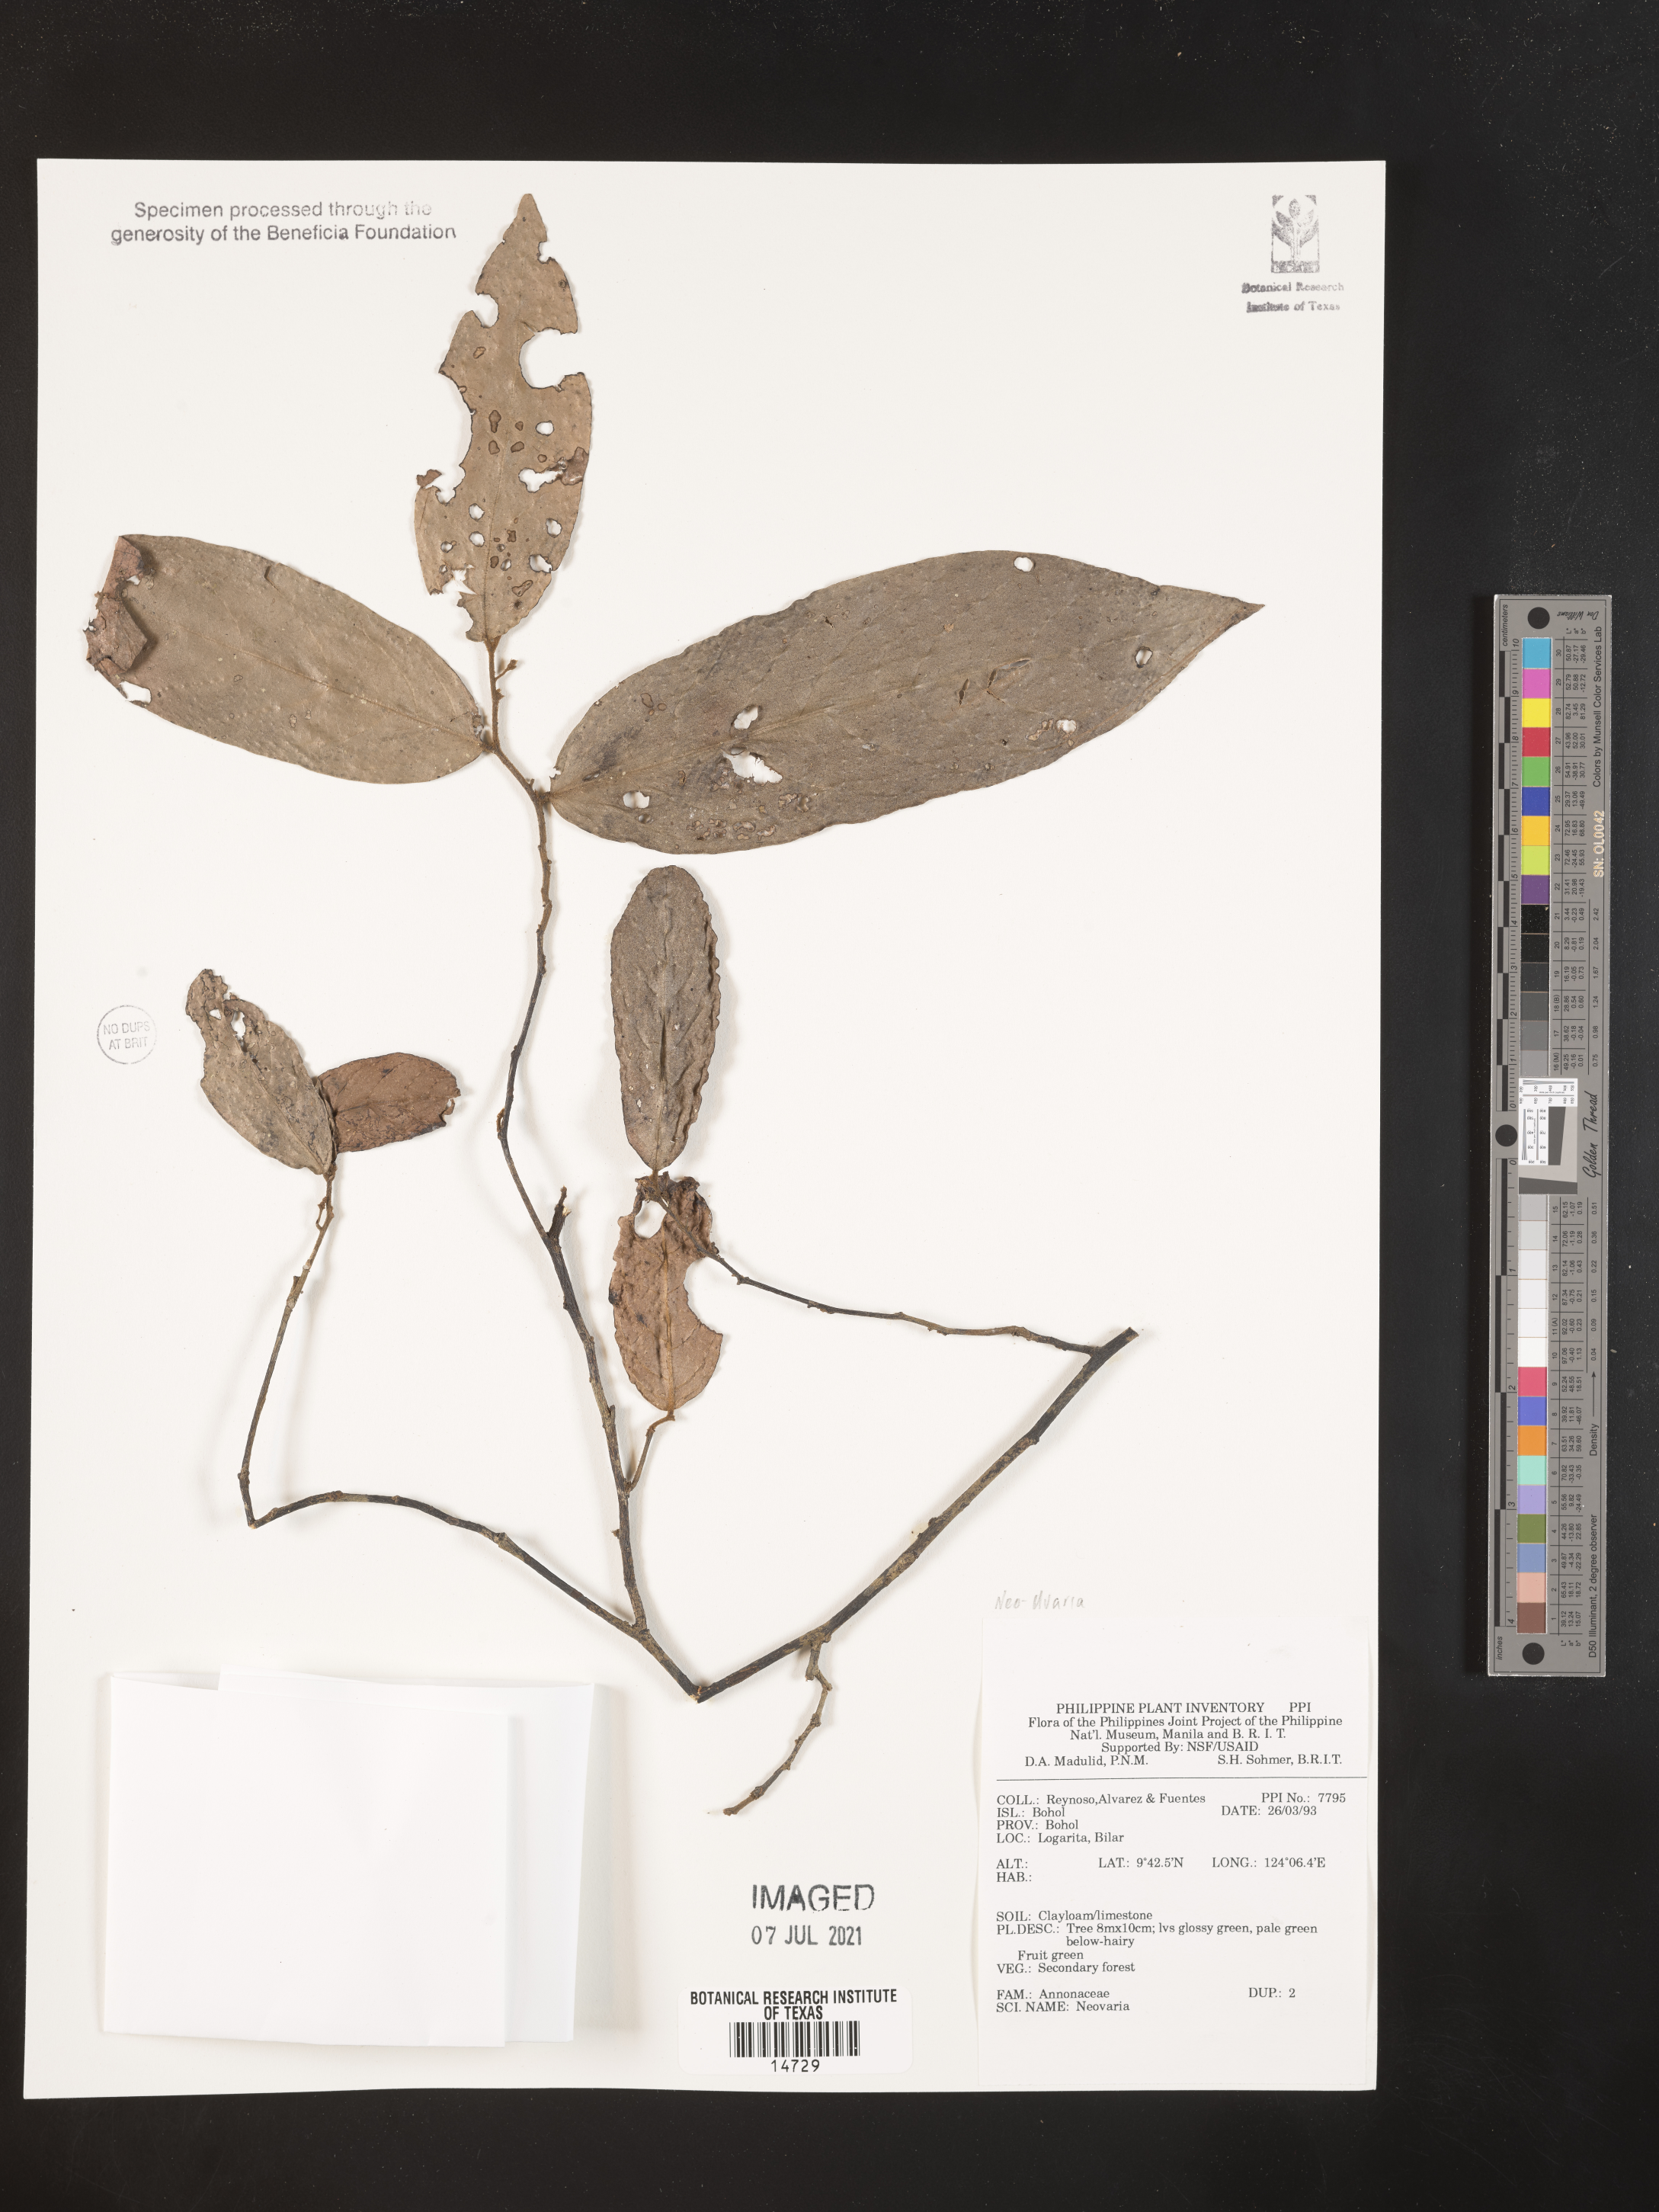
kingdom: Plantae
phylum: Tracheophyta
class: Magnoliopsida
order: Magnoliales
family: Annonaceae
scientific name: Annonaceae
